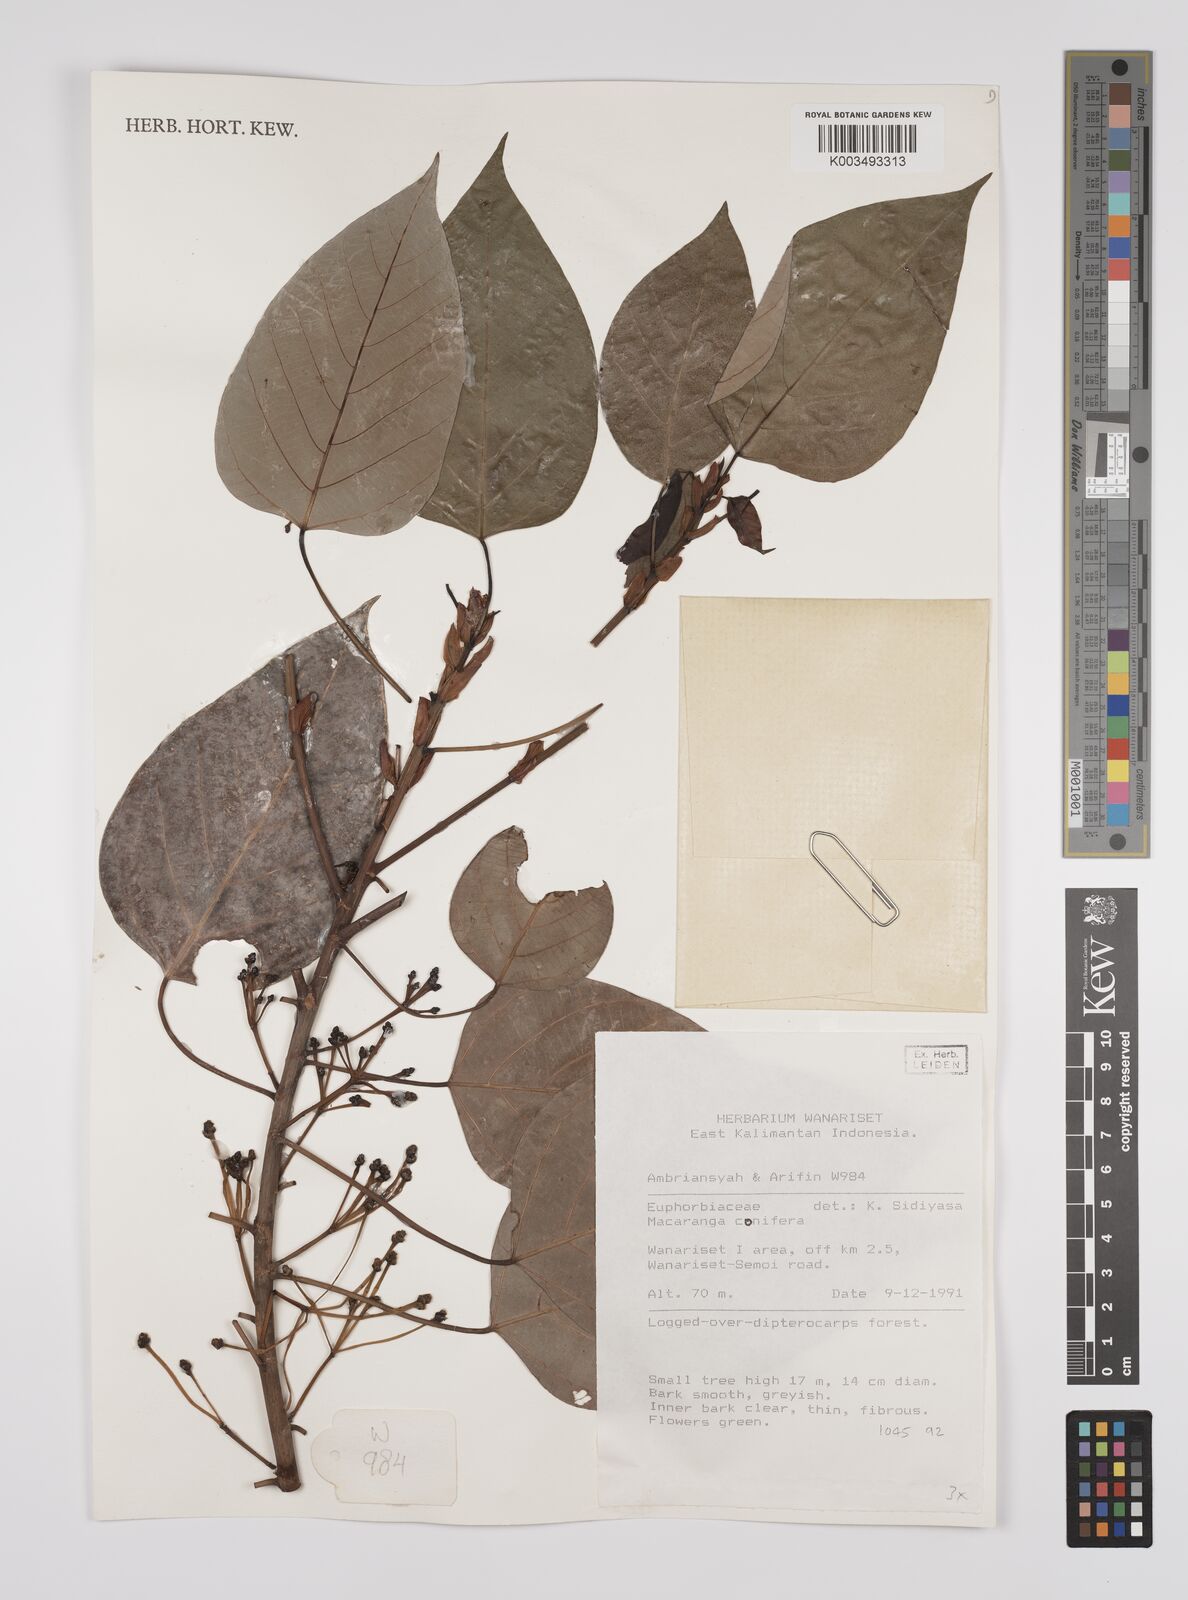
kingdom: Plantae
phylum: Tracheophyta
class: Magnoliopsida
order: Malpighiales
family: Euphorbiaceae
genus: Macaranga
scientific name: Macaranga conifera
